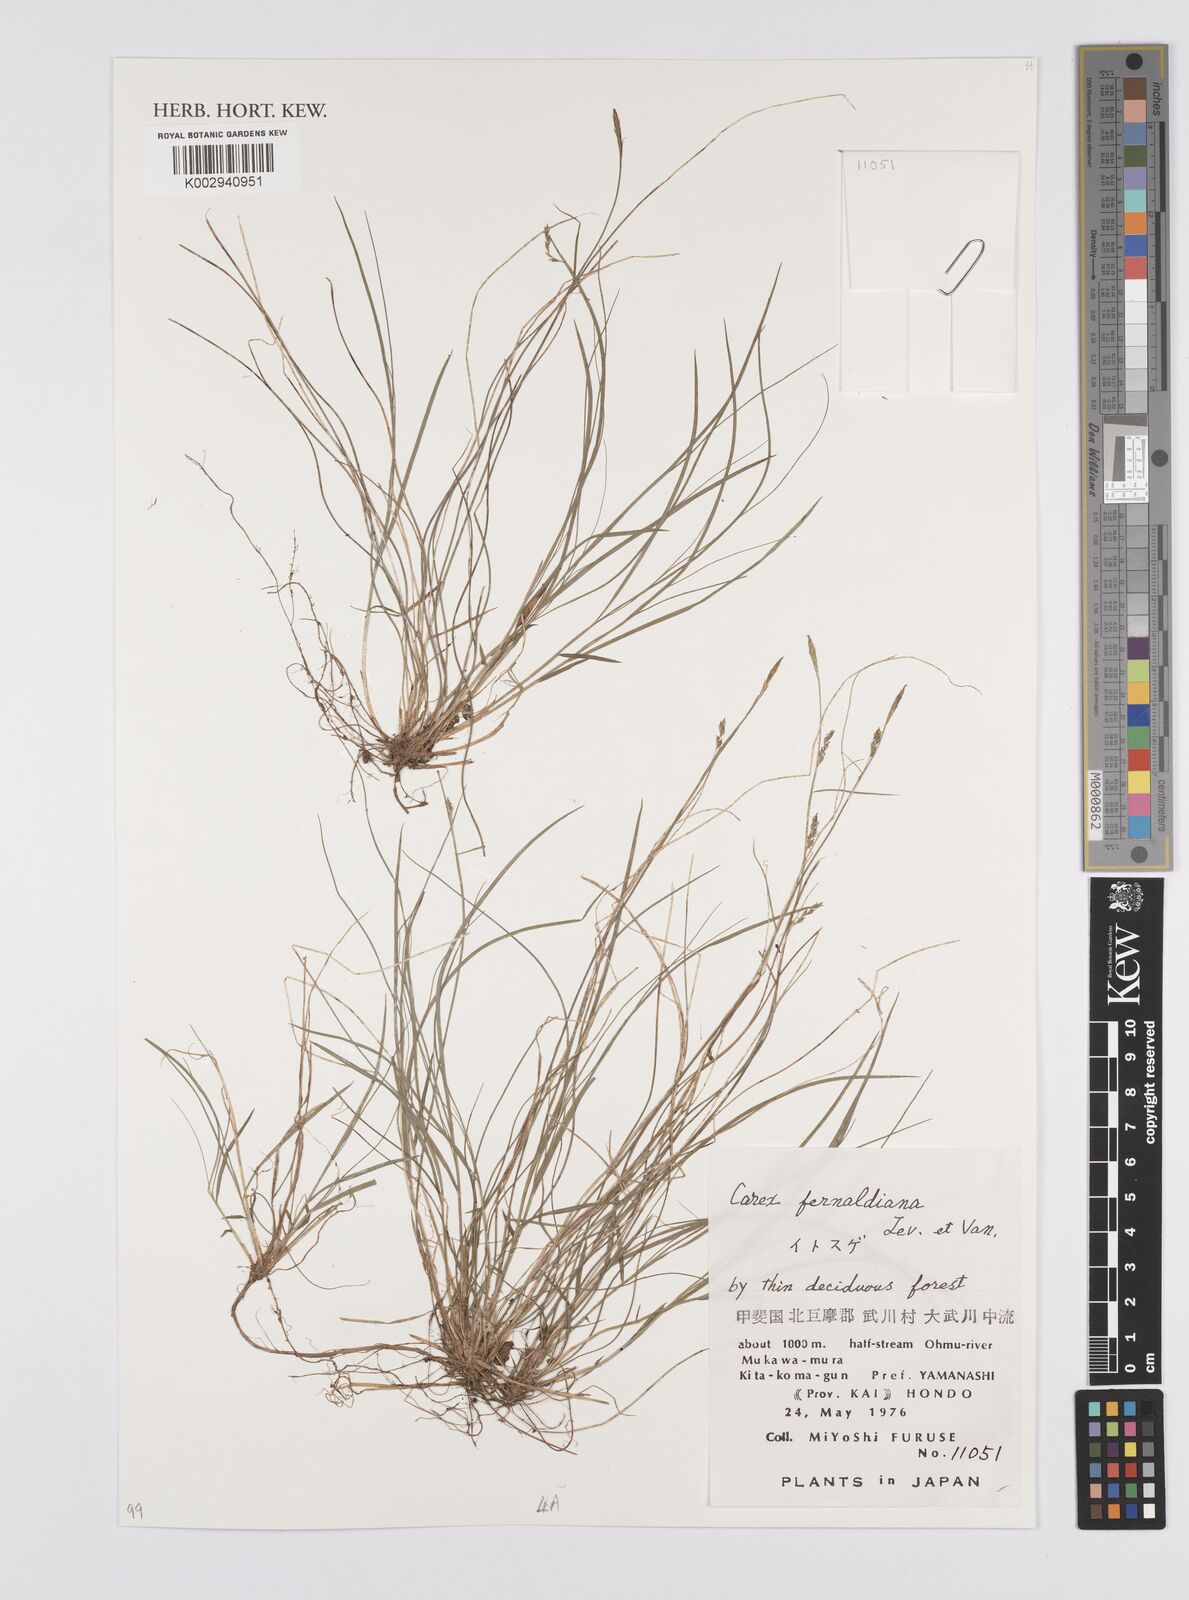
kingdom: Plantae
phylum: Tracheophyta
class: Liliopsida
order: Poales
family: Cyperaceae
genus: Carex
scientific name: Carex breviculmis
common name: Asian shortstem sedge
